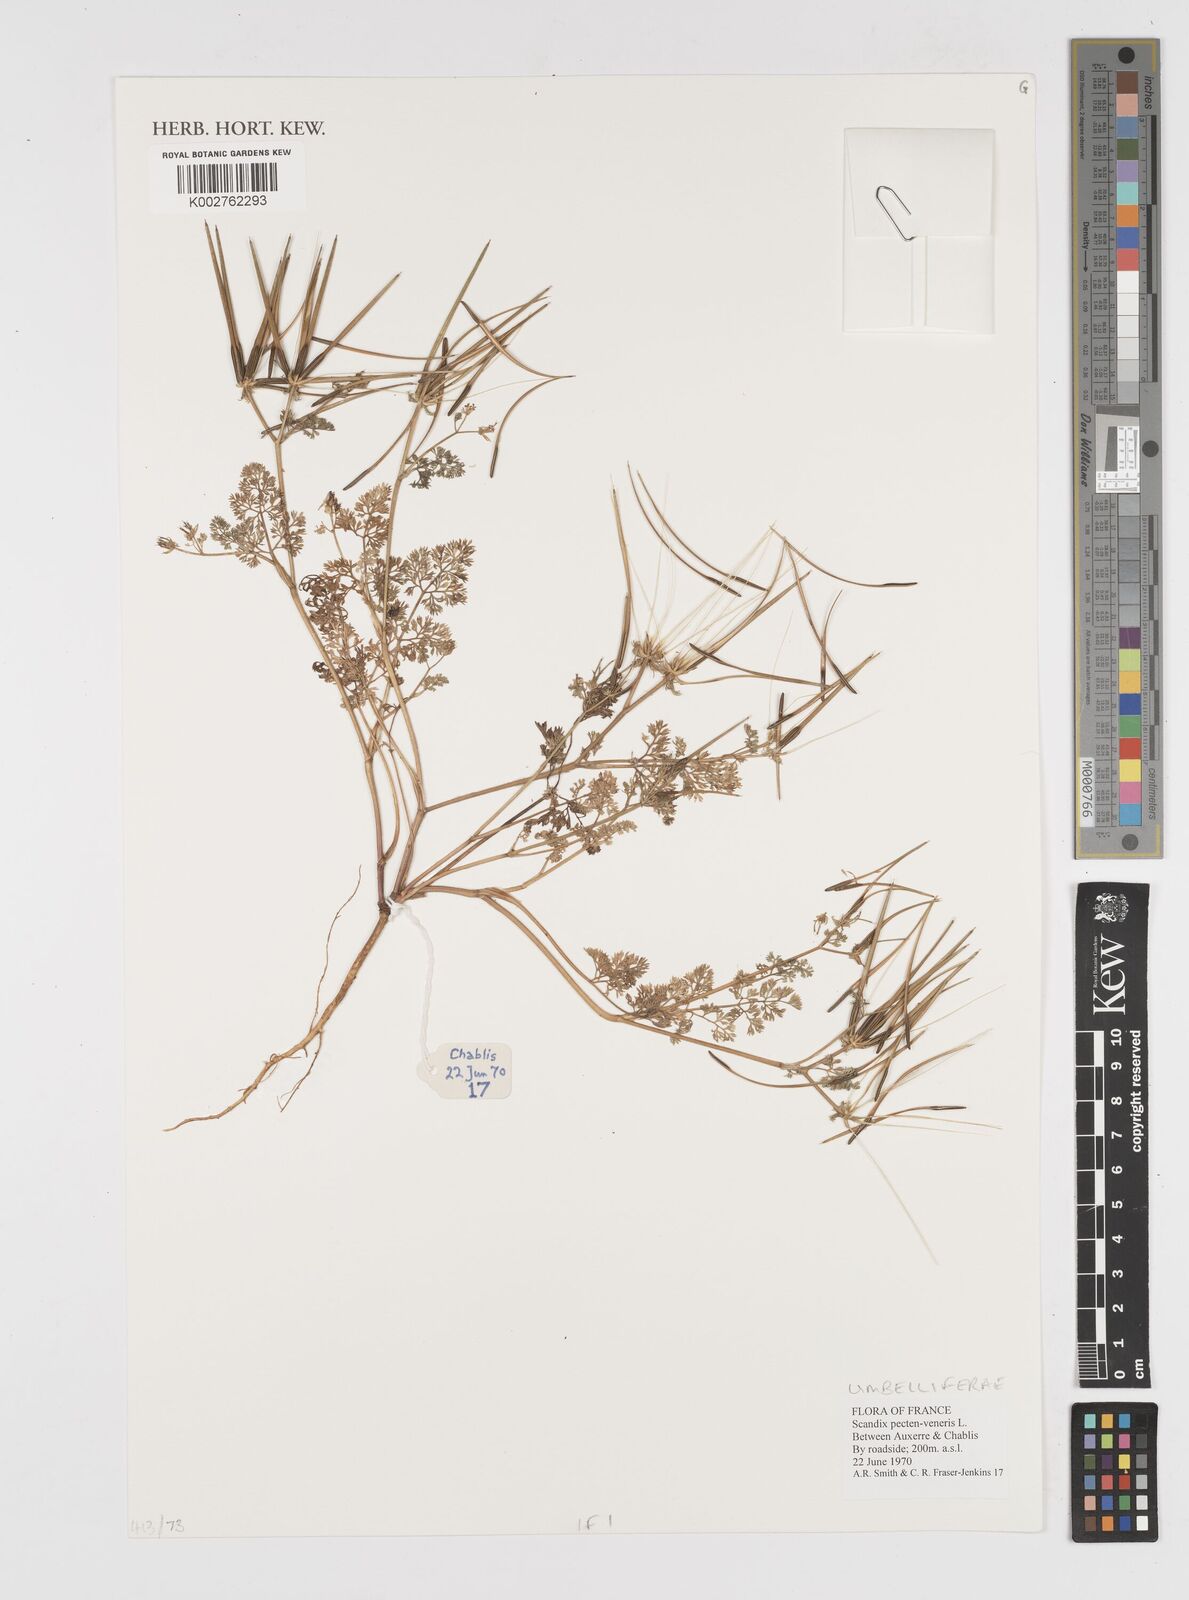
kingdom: Plantae
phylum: Tracheophyta
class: Magnoliopsida
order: Apiales
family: Apiaceae
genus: Scandix
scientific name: Scandix pecten-veneris
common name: Shepherd's-needle
